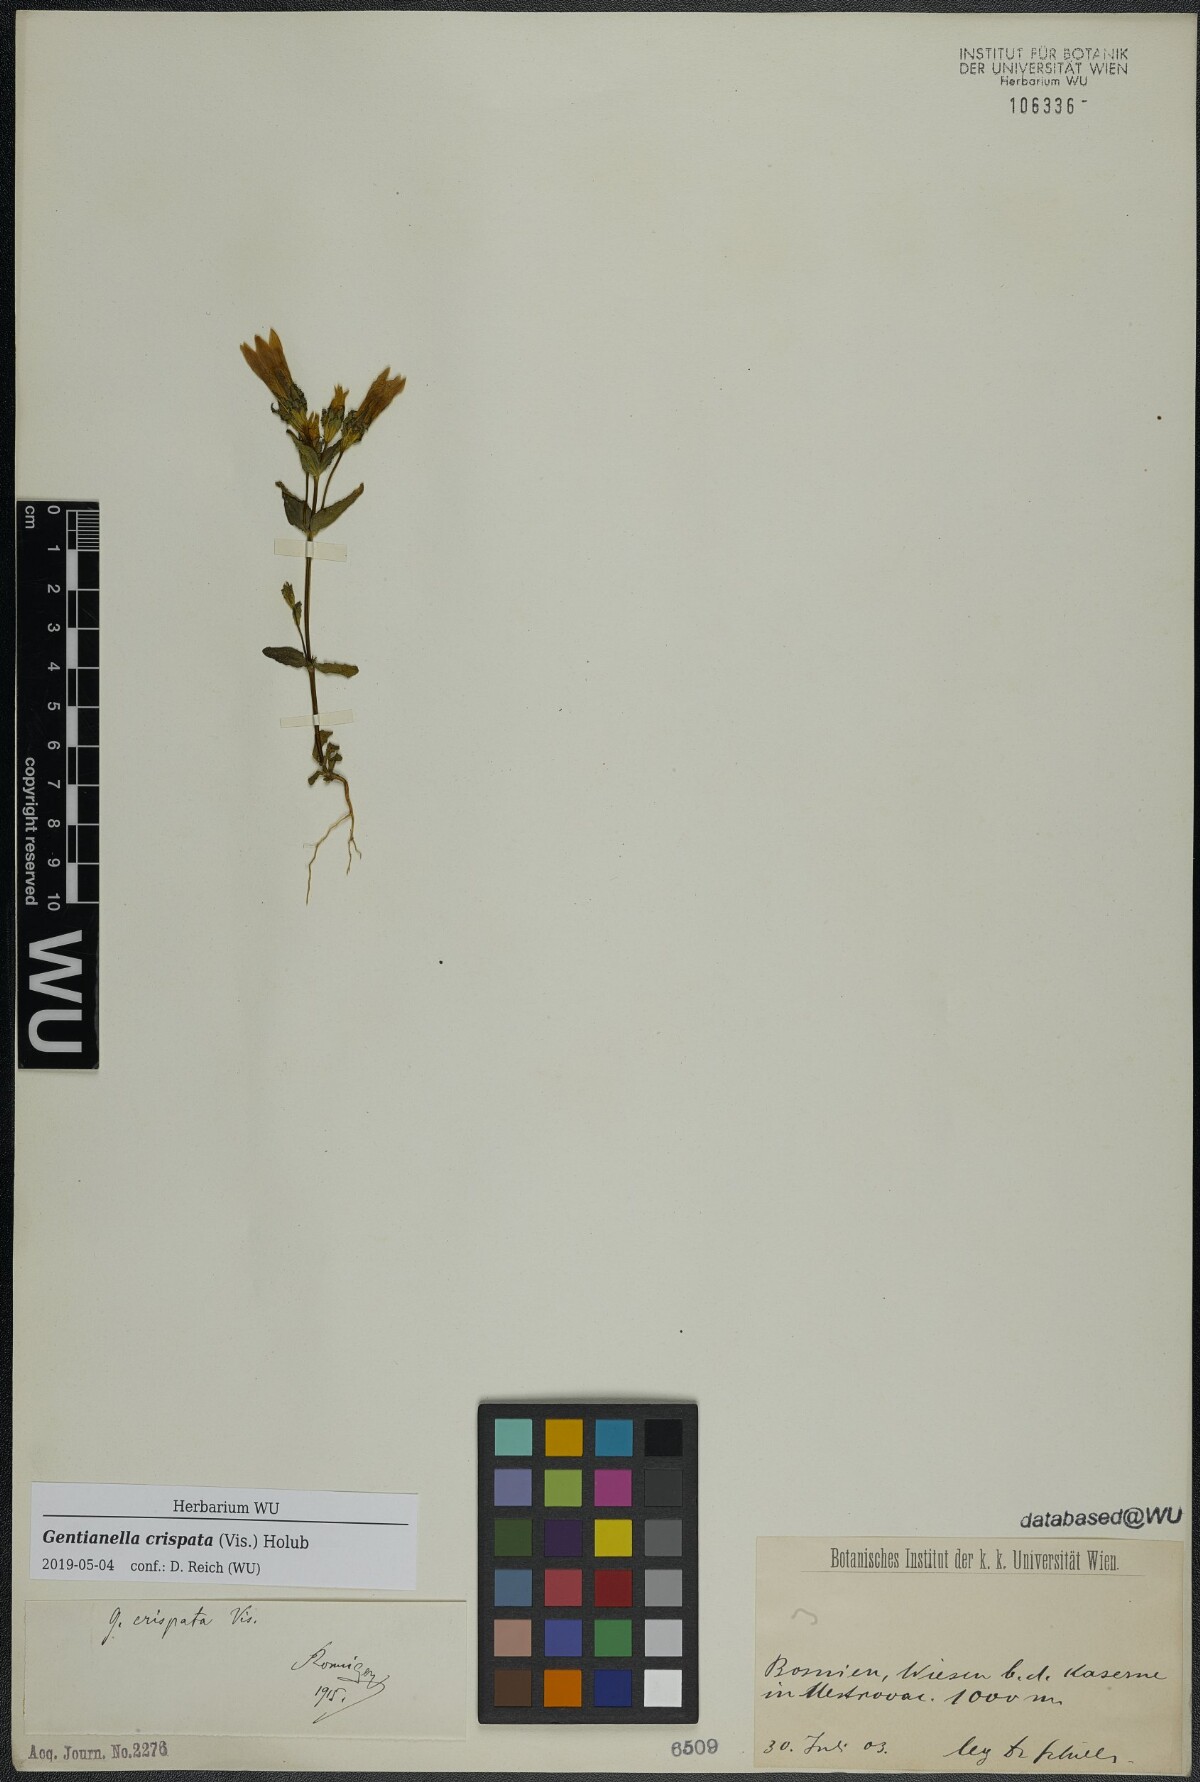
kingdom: Plantae
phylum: Tracheophyta
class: Magnoliopsida
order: Gentianales
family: Gentianaceae
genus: Gentianella
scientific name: Gentianella crispata
